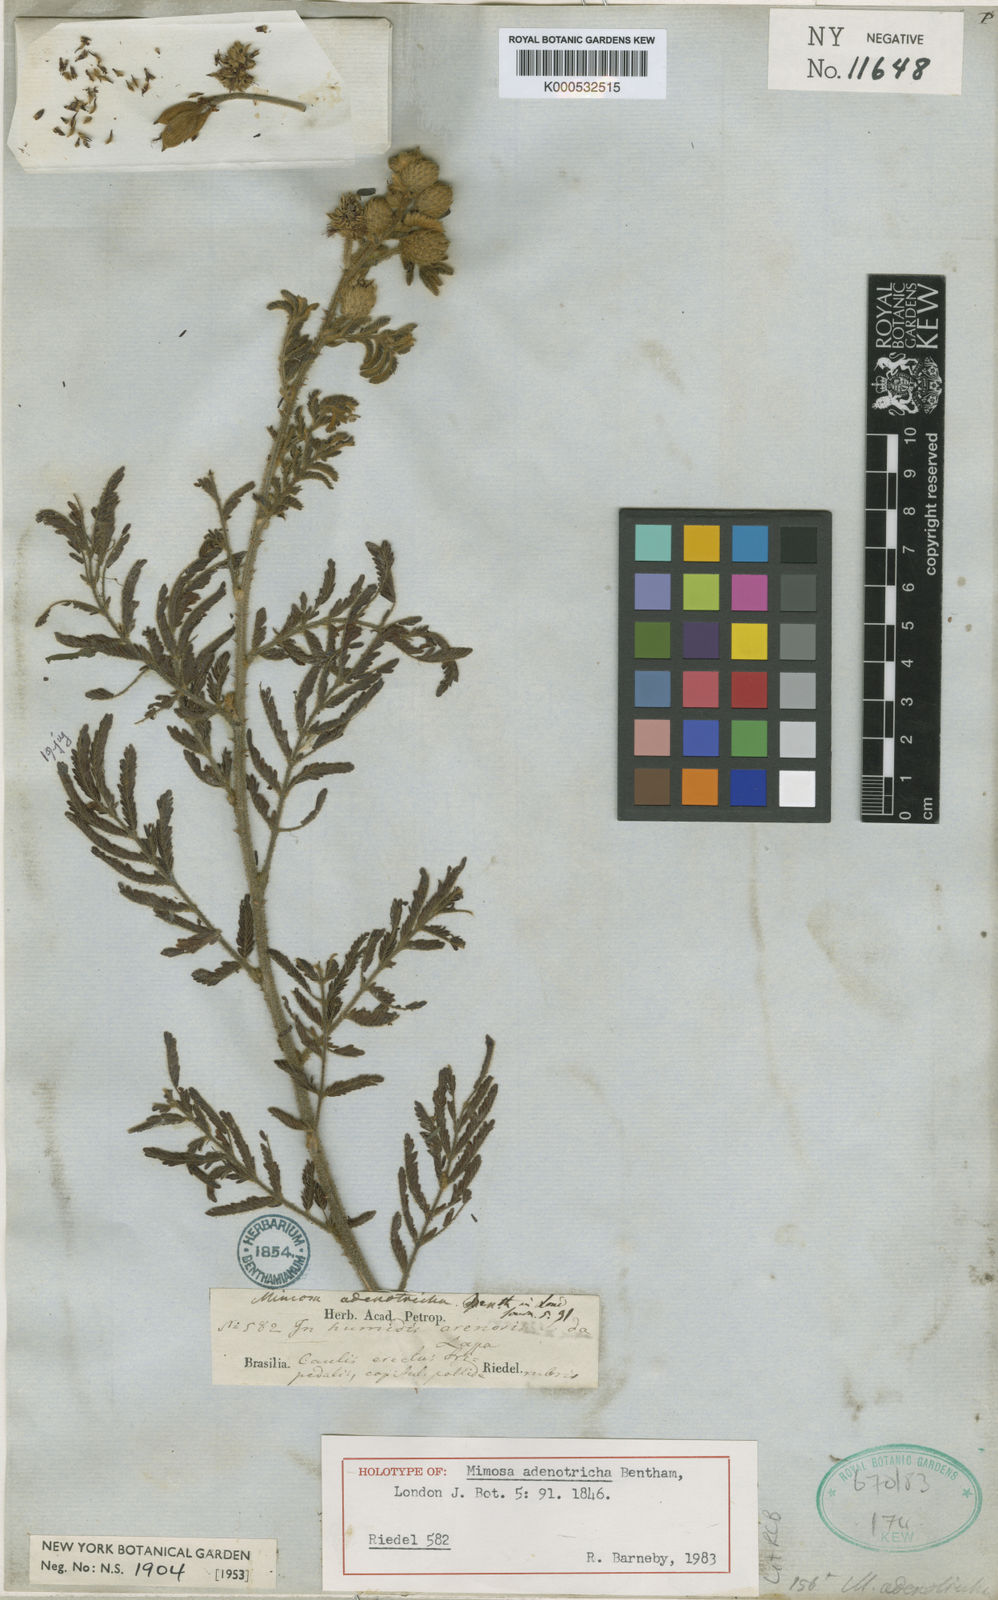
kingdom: Plantae
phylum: Tracheophyta
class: Magnoliopsida
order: Fabales
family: Fabaceae
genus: Mimosa
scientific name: Mimosa adenotricha
